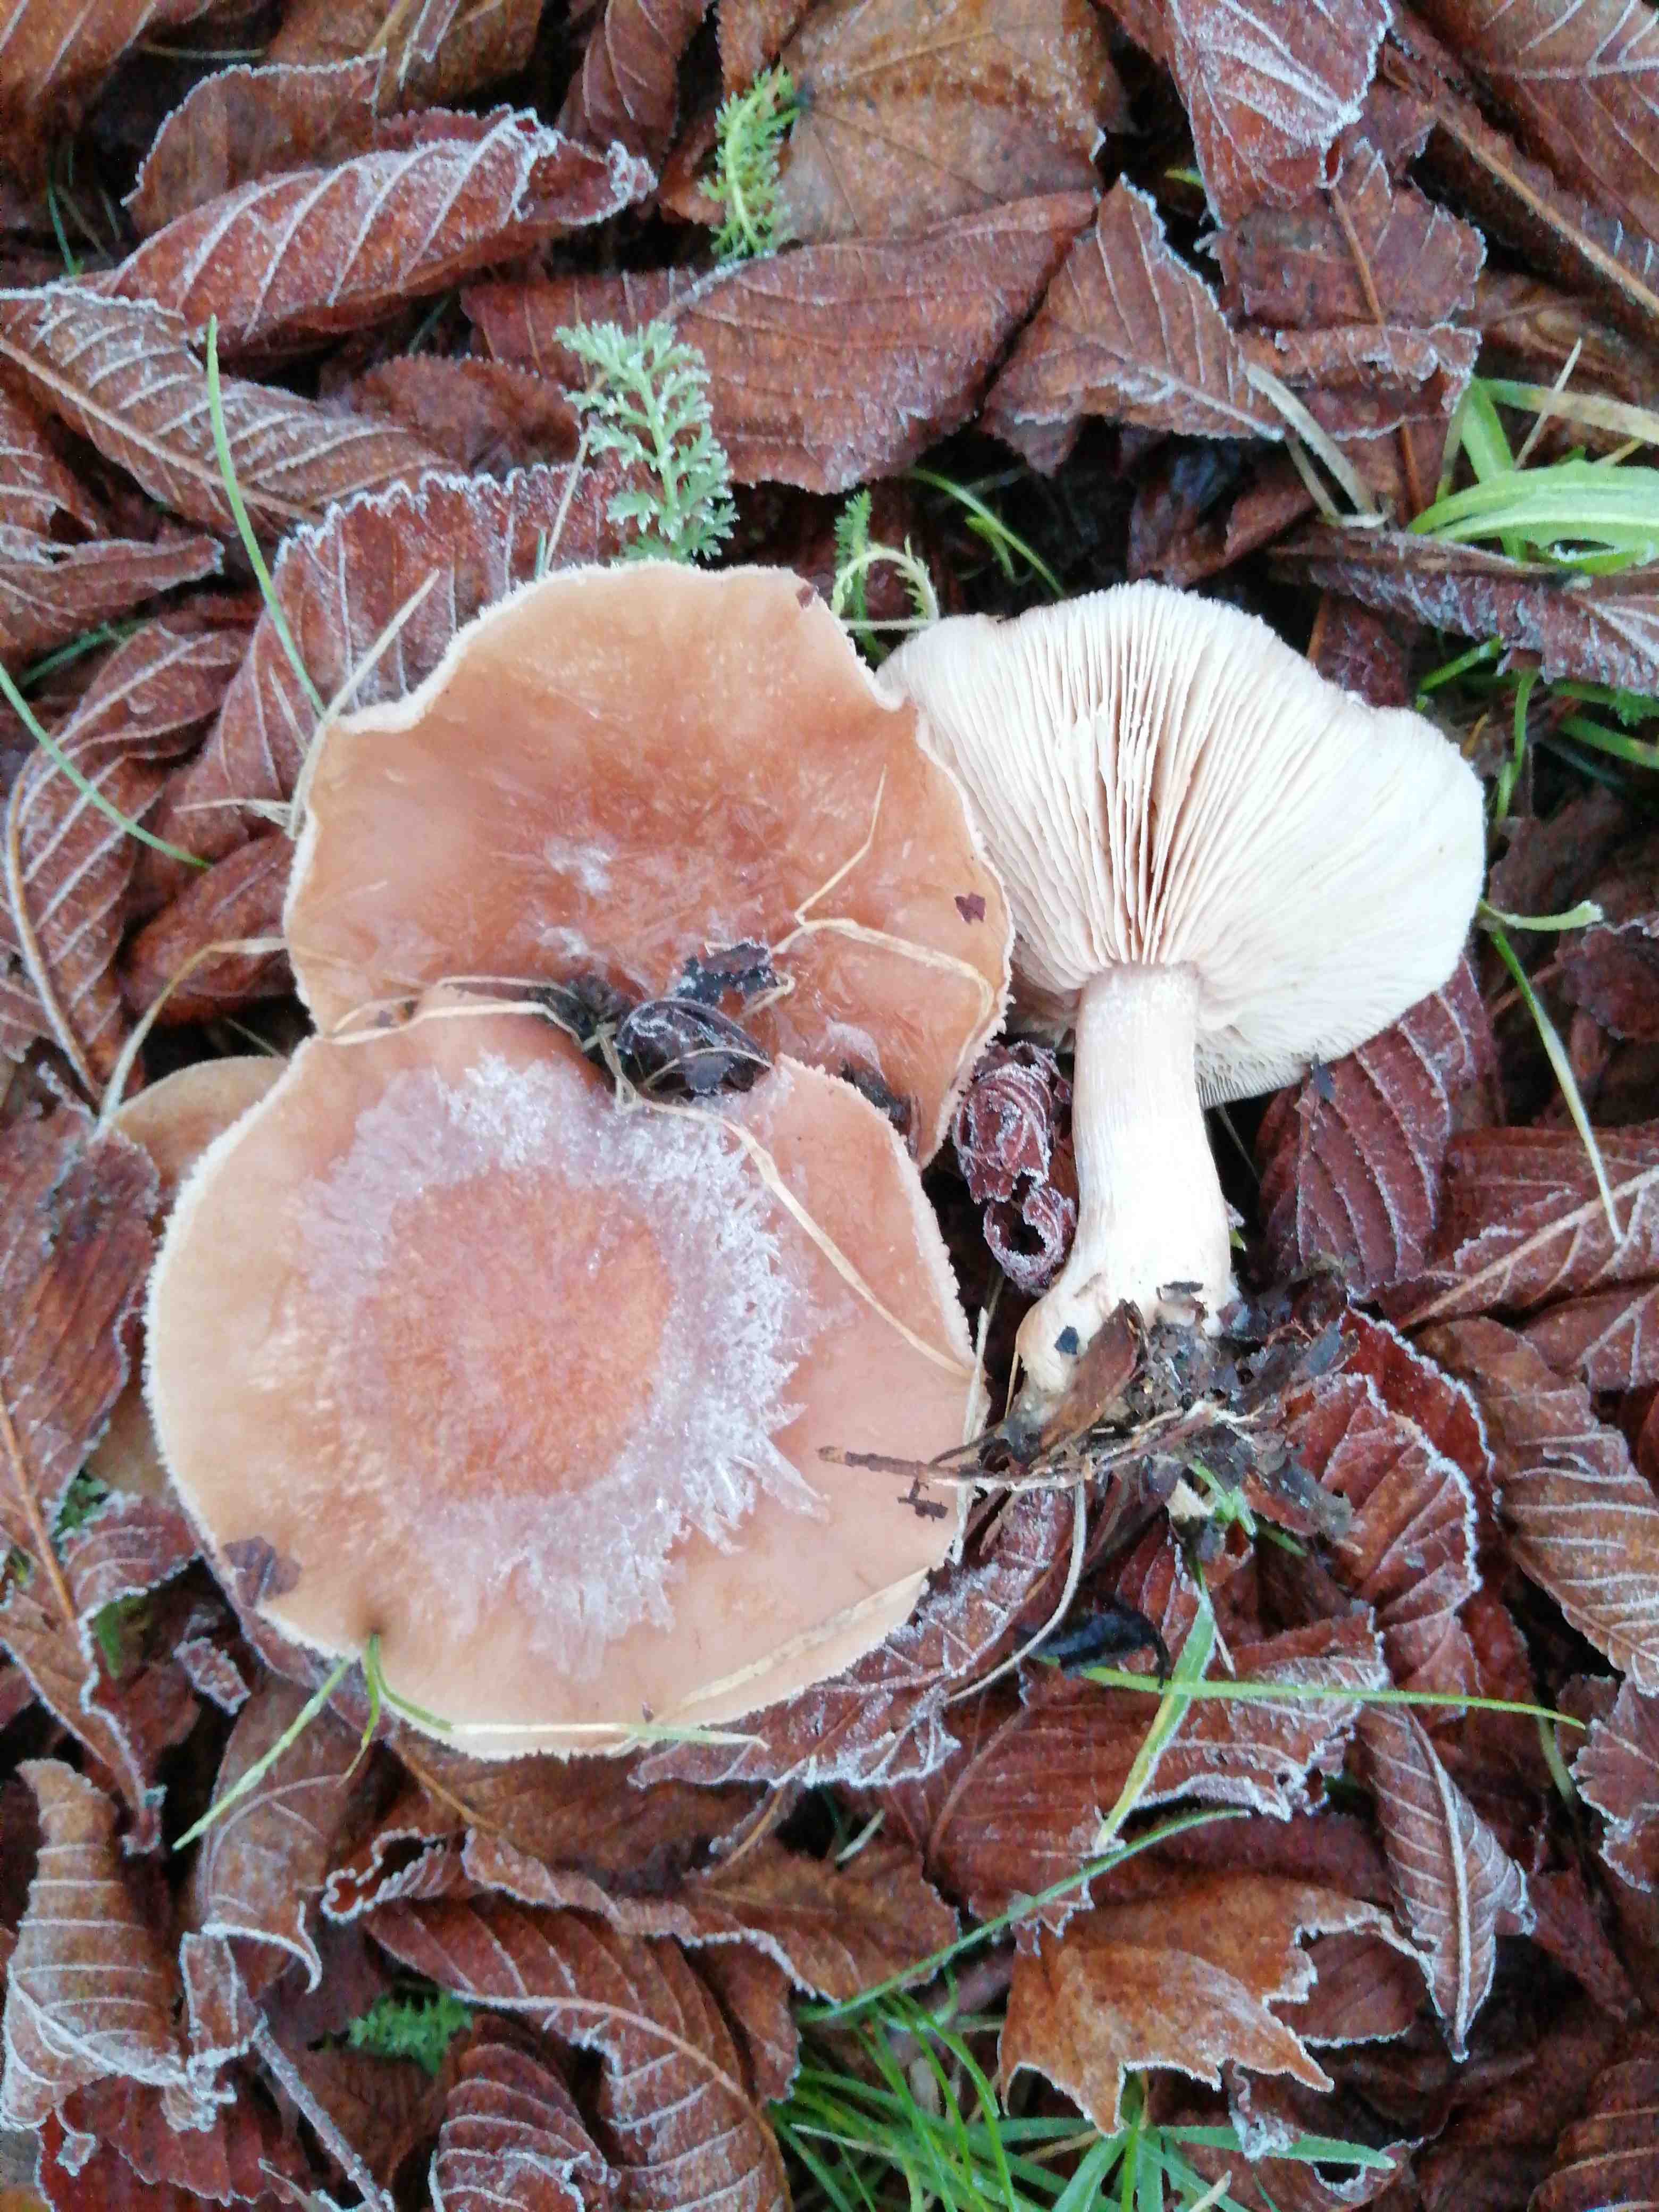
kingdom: Fungi
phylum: Basidiomycota
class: Agaricomycetes
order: Agaricales
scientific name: Agaricales
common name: champignonordenen
